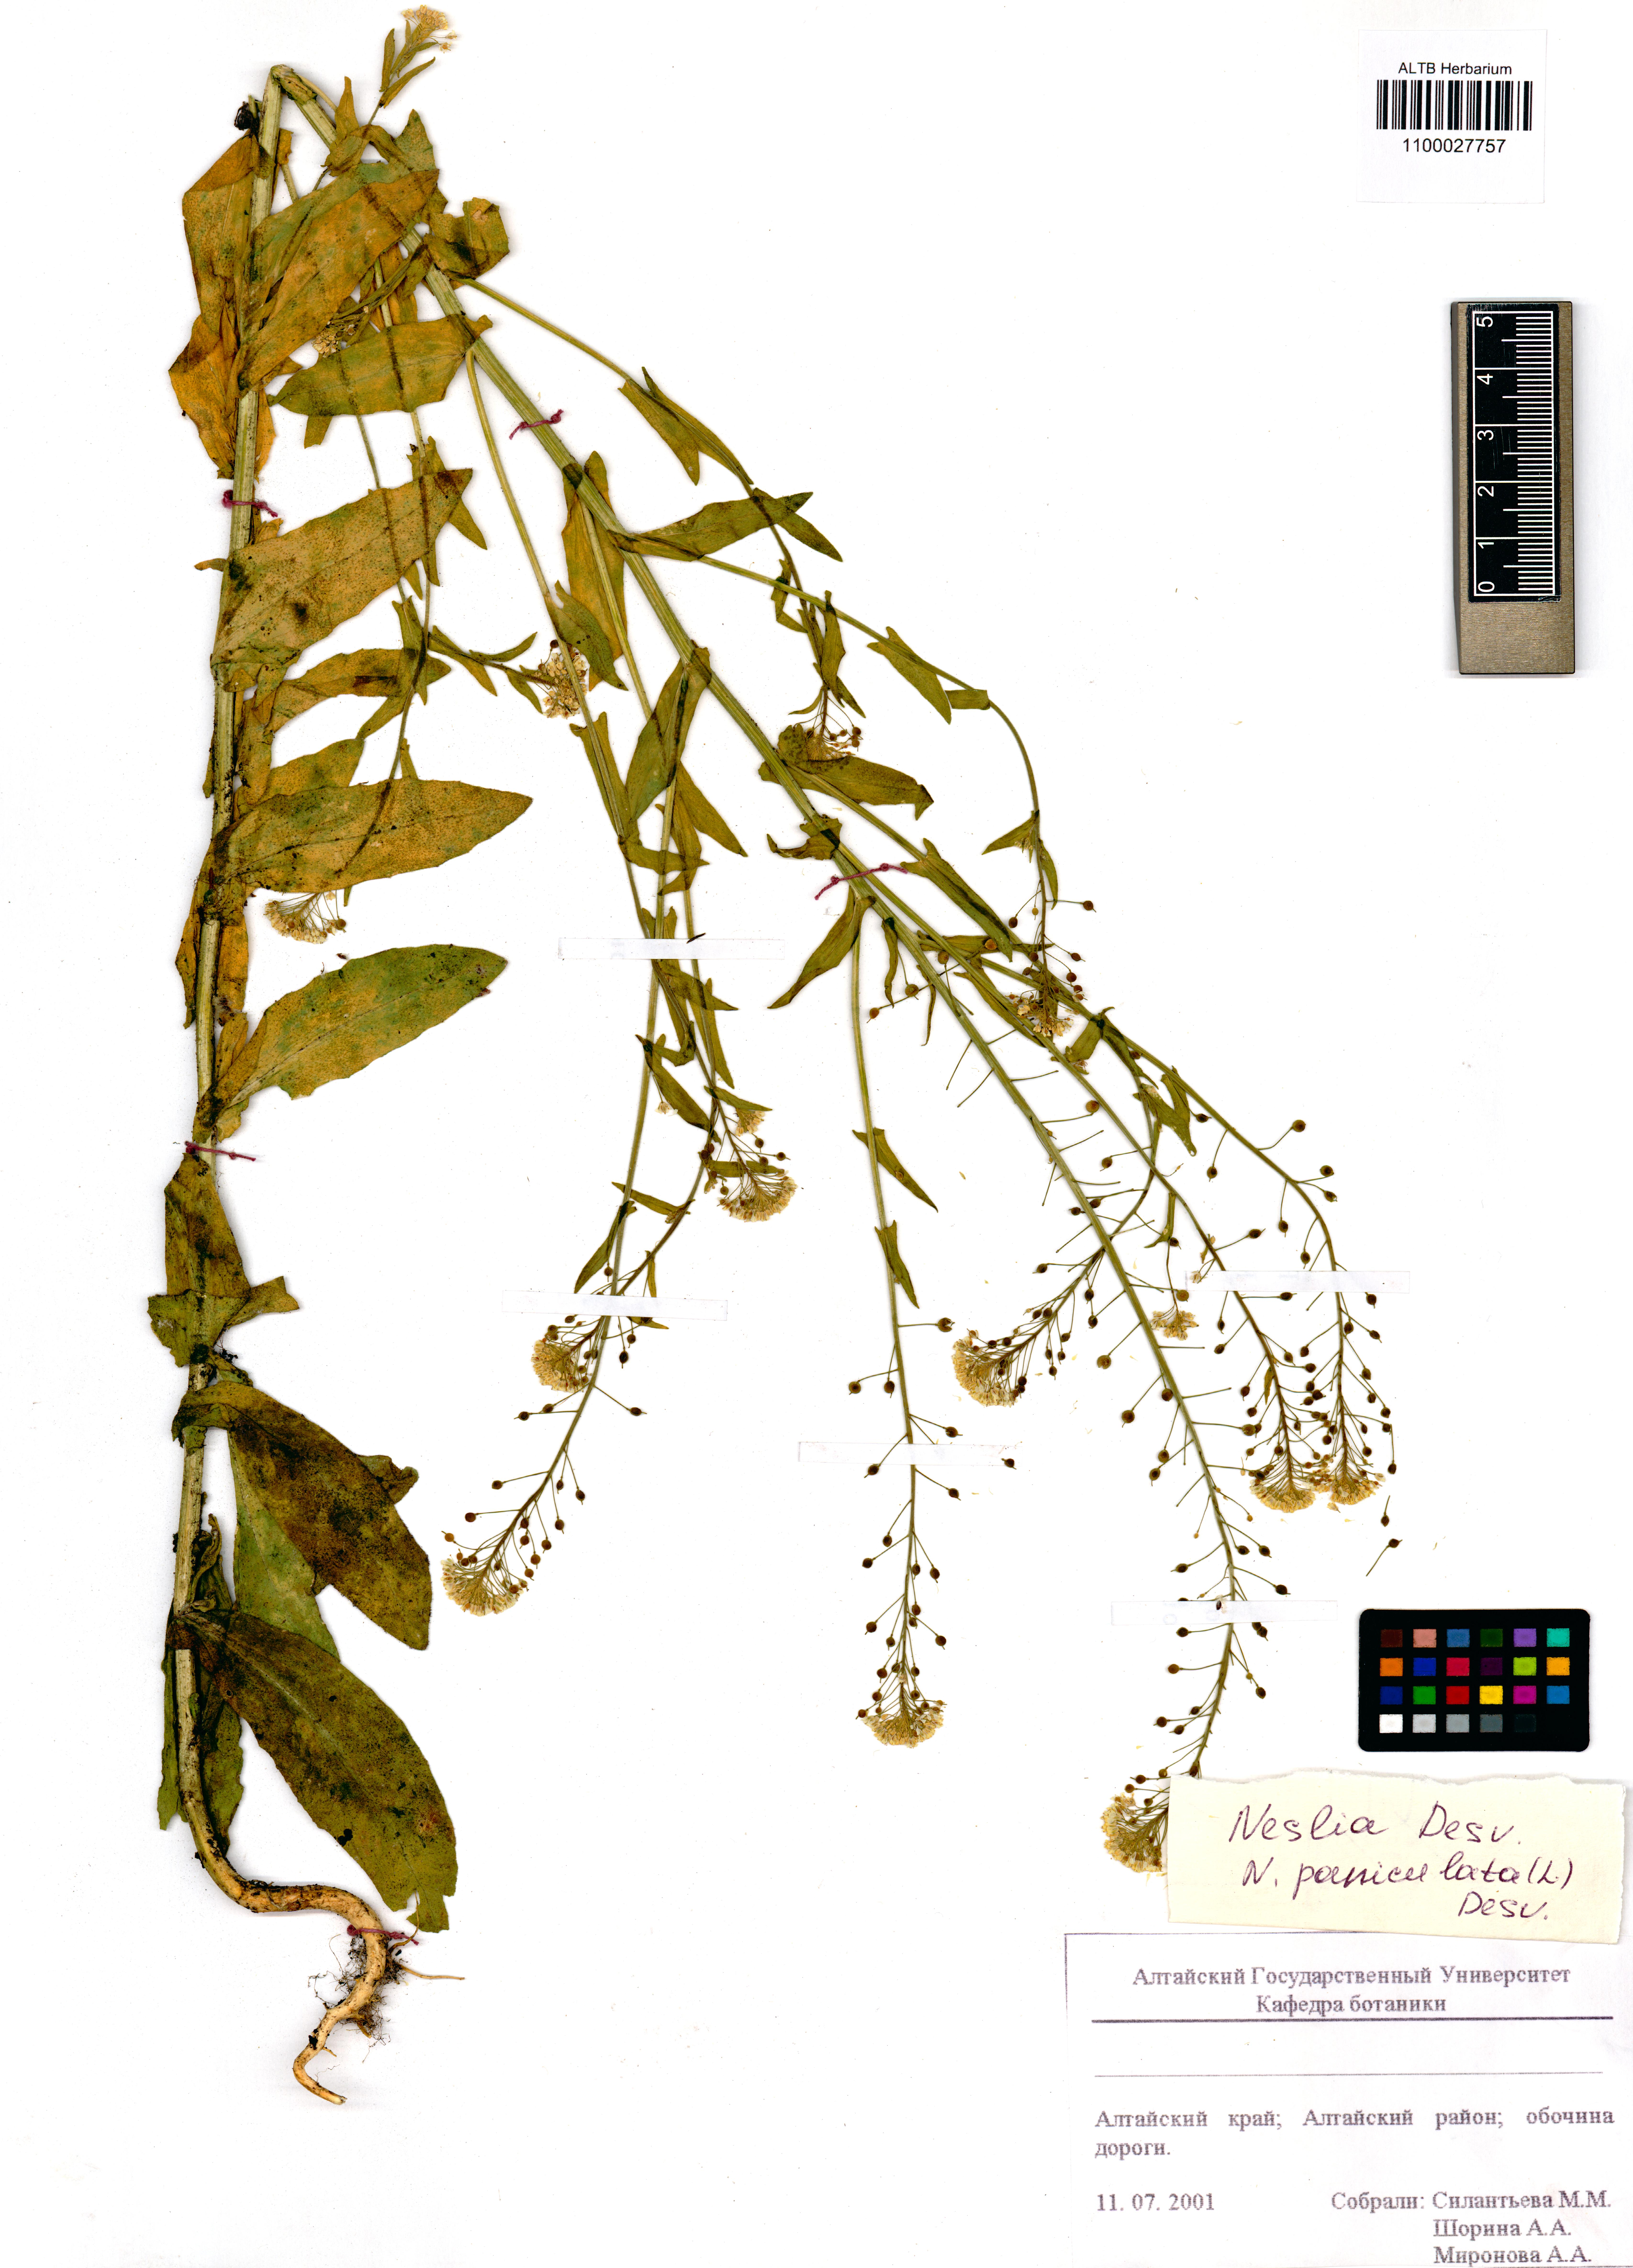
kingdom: Plantae
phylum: Tracheophyta
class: Magnoliopsida
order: Brassicales
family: Brassicaceae
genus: Neslia
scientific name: Neslia paniculata
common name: Ball mustard
